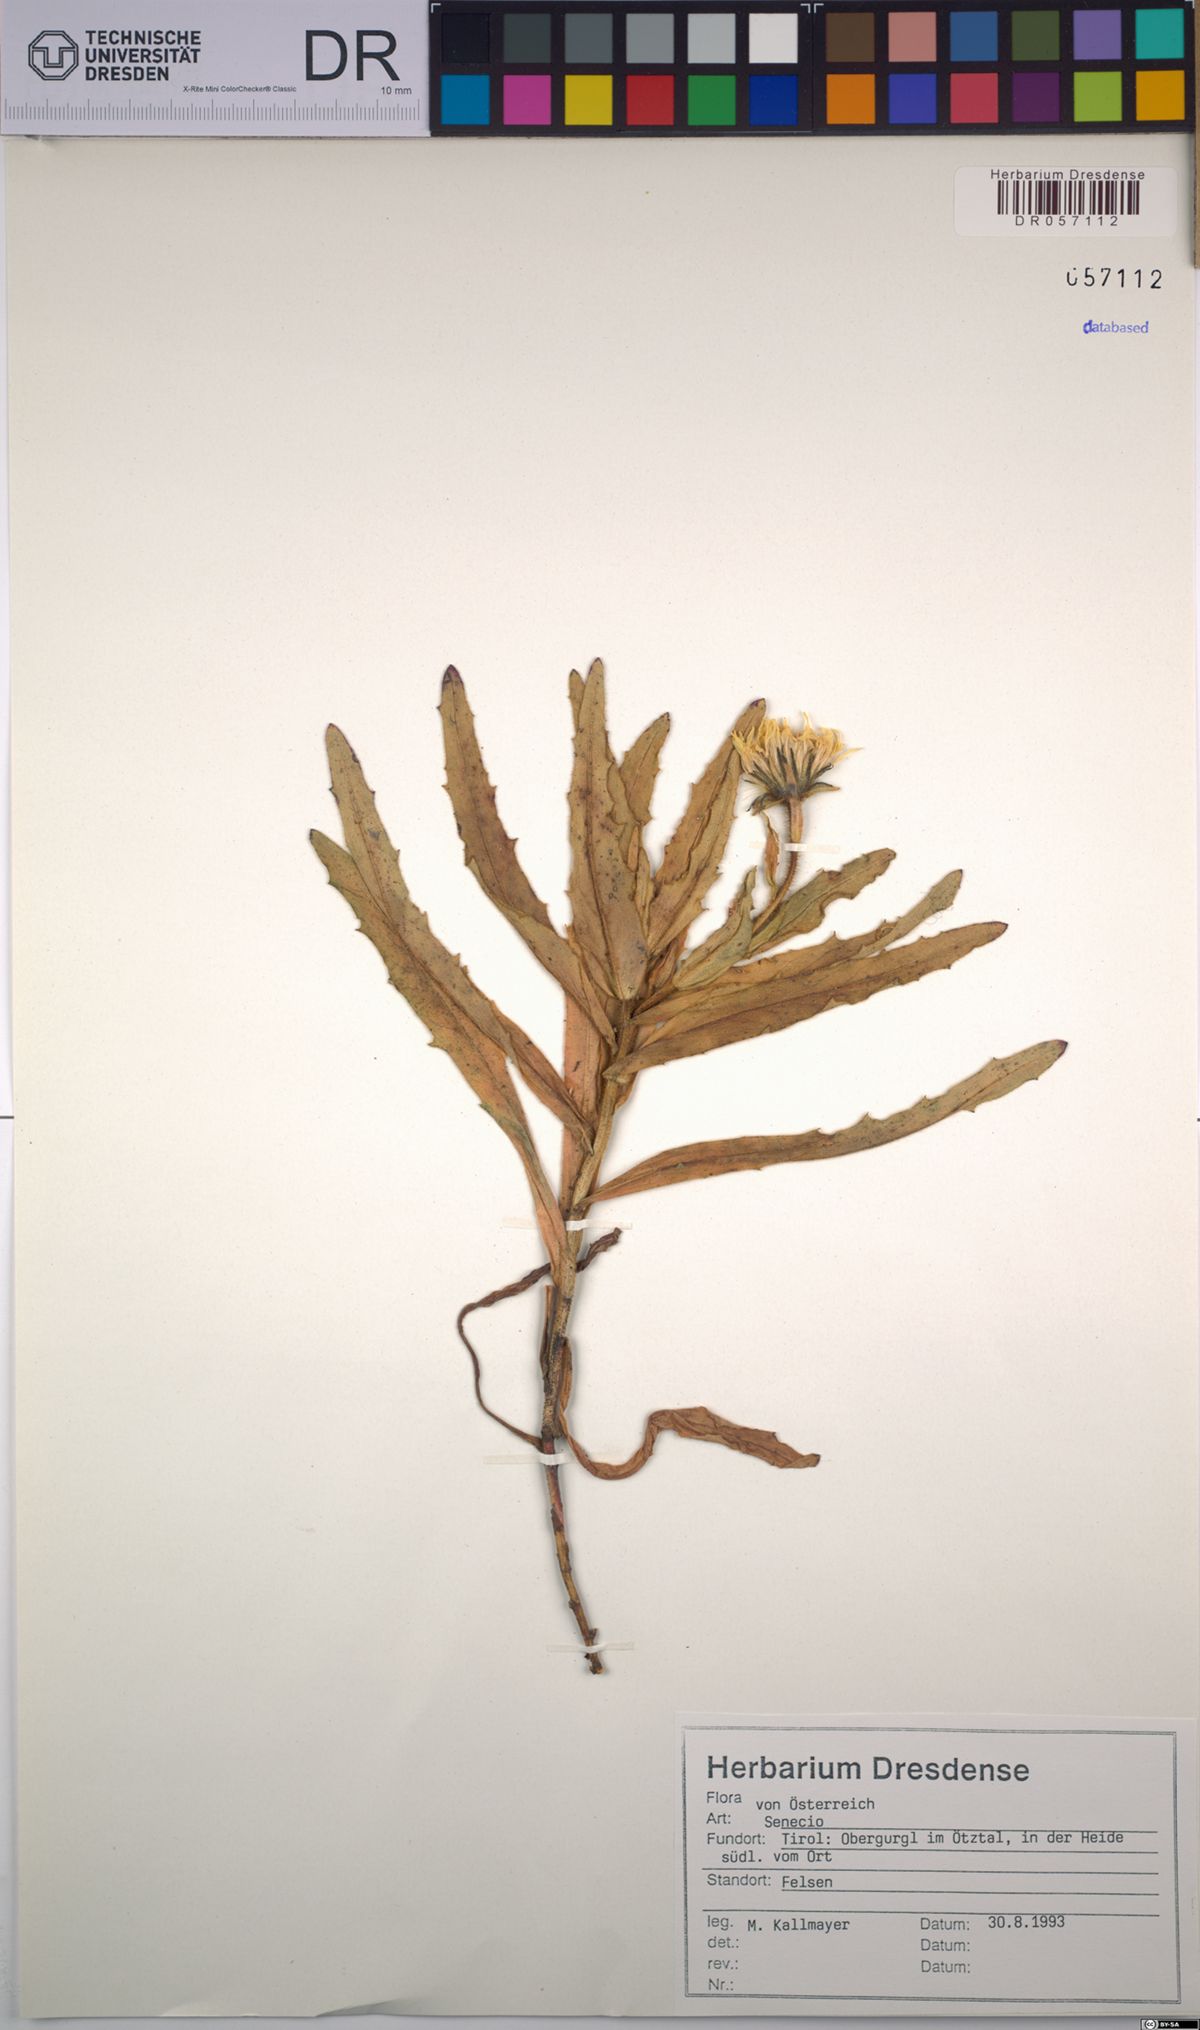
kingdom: Plantae
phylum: Tracheophyta
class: Magnoliopsida
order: Asterales
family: Asteraceae
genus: Senecio
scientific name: Senecio
